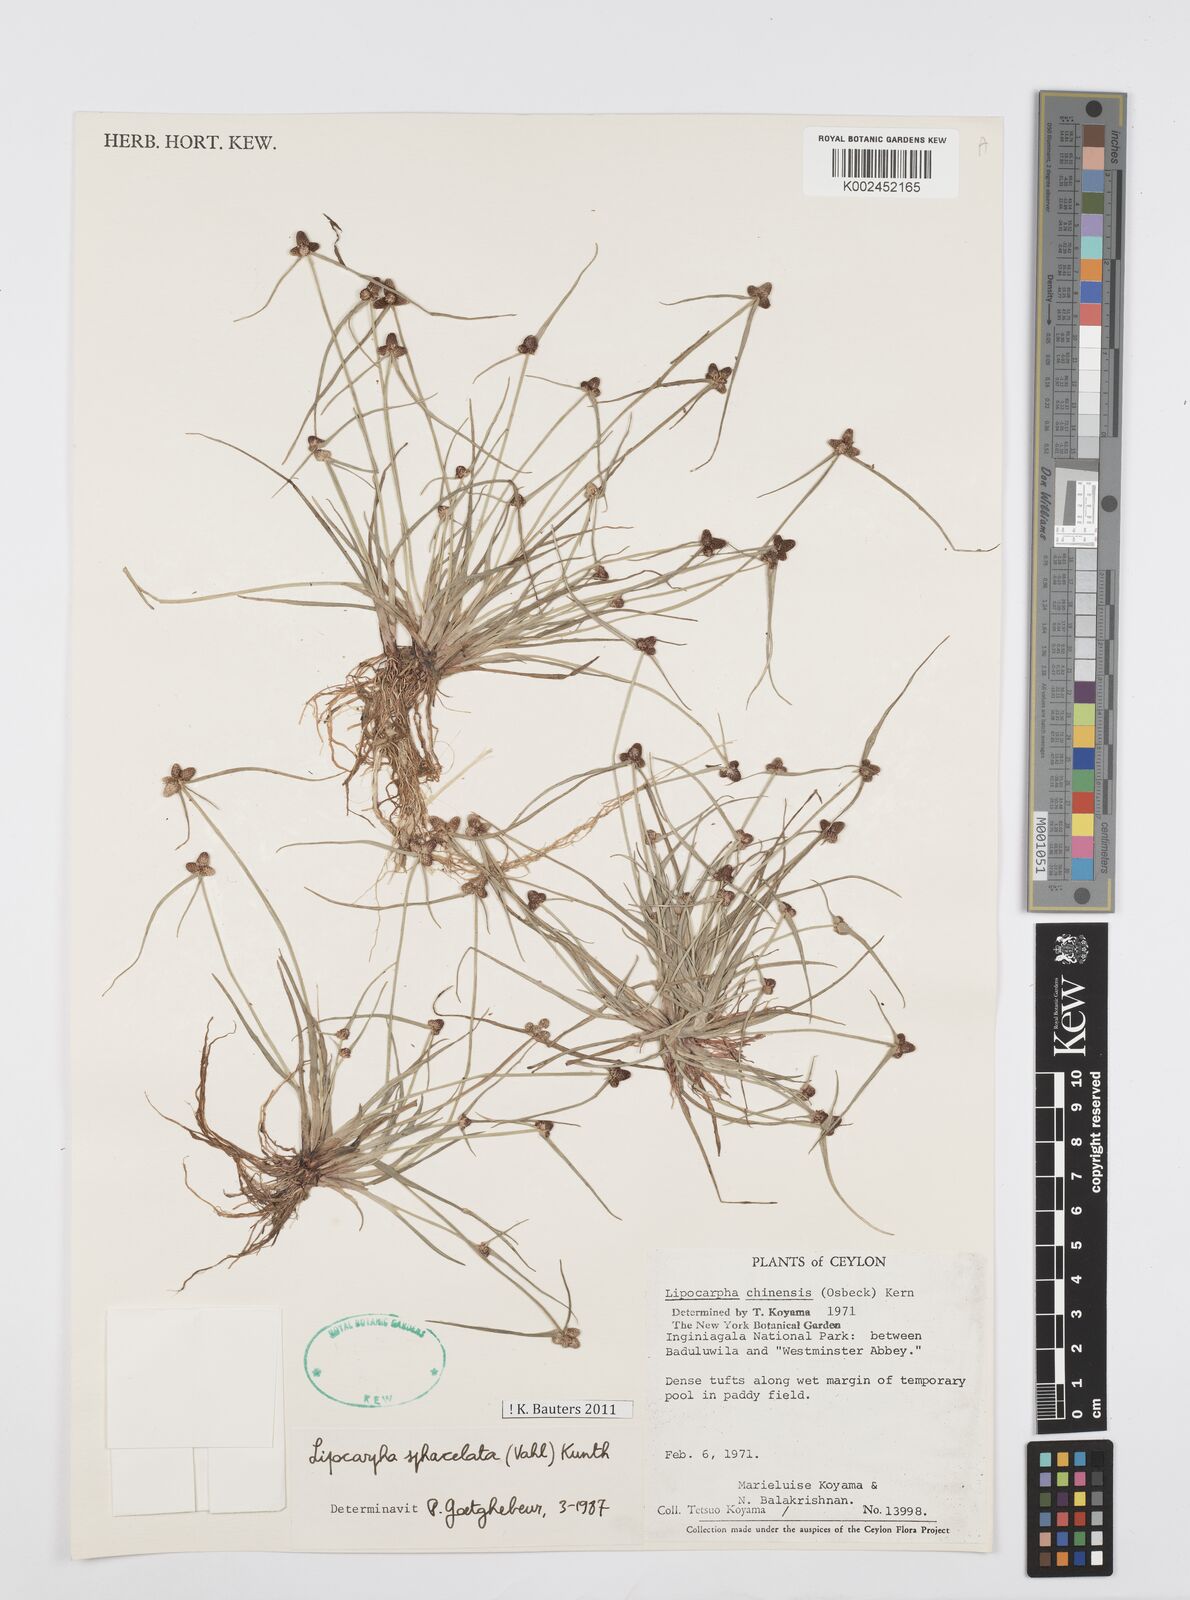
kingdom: Plantae
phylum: Tracheophyta
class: Liliopsida
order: Poales
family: Cyperaceae
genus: Cyperus
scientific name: Cyperus sphacelatus
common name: Roadside flatsedge
